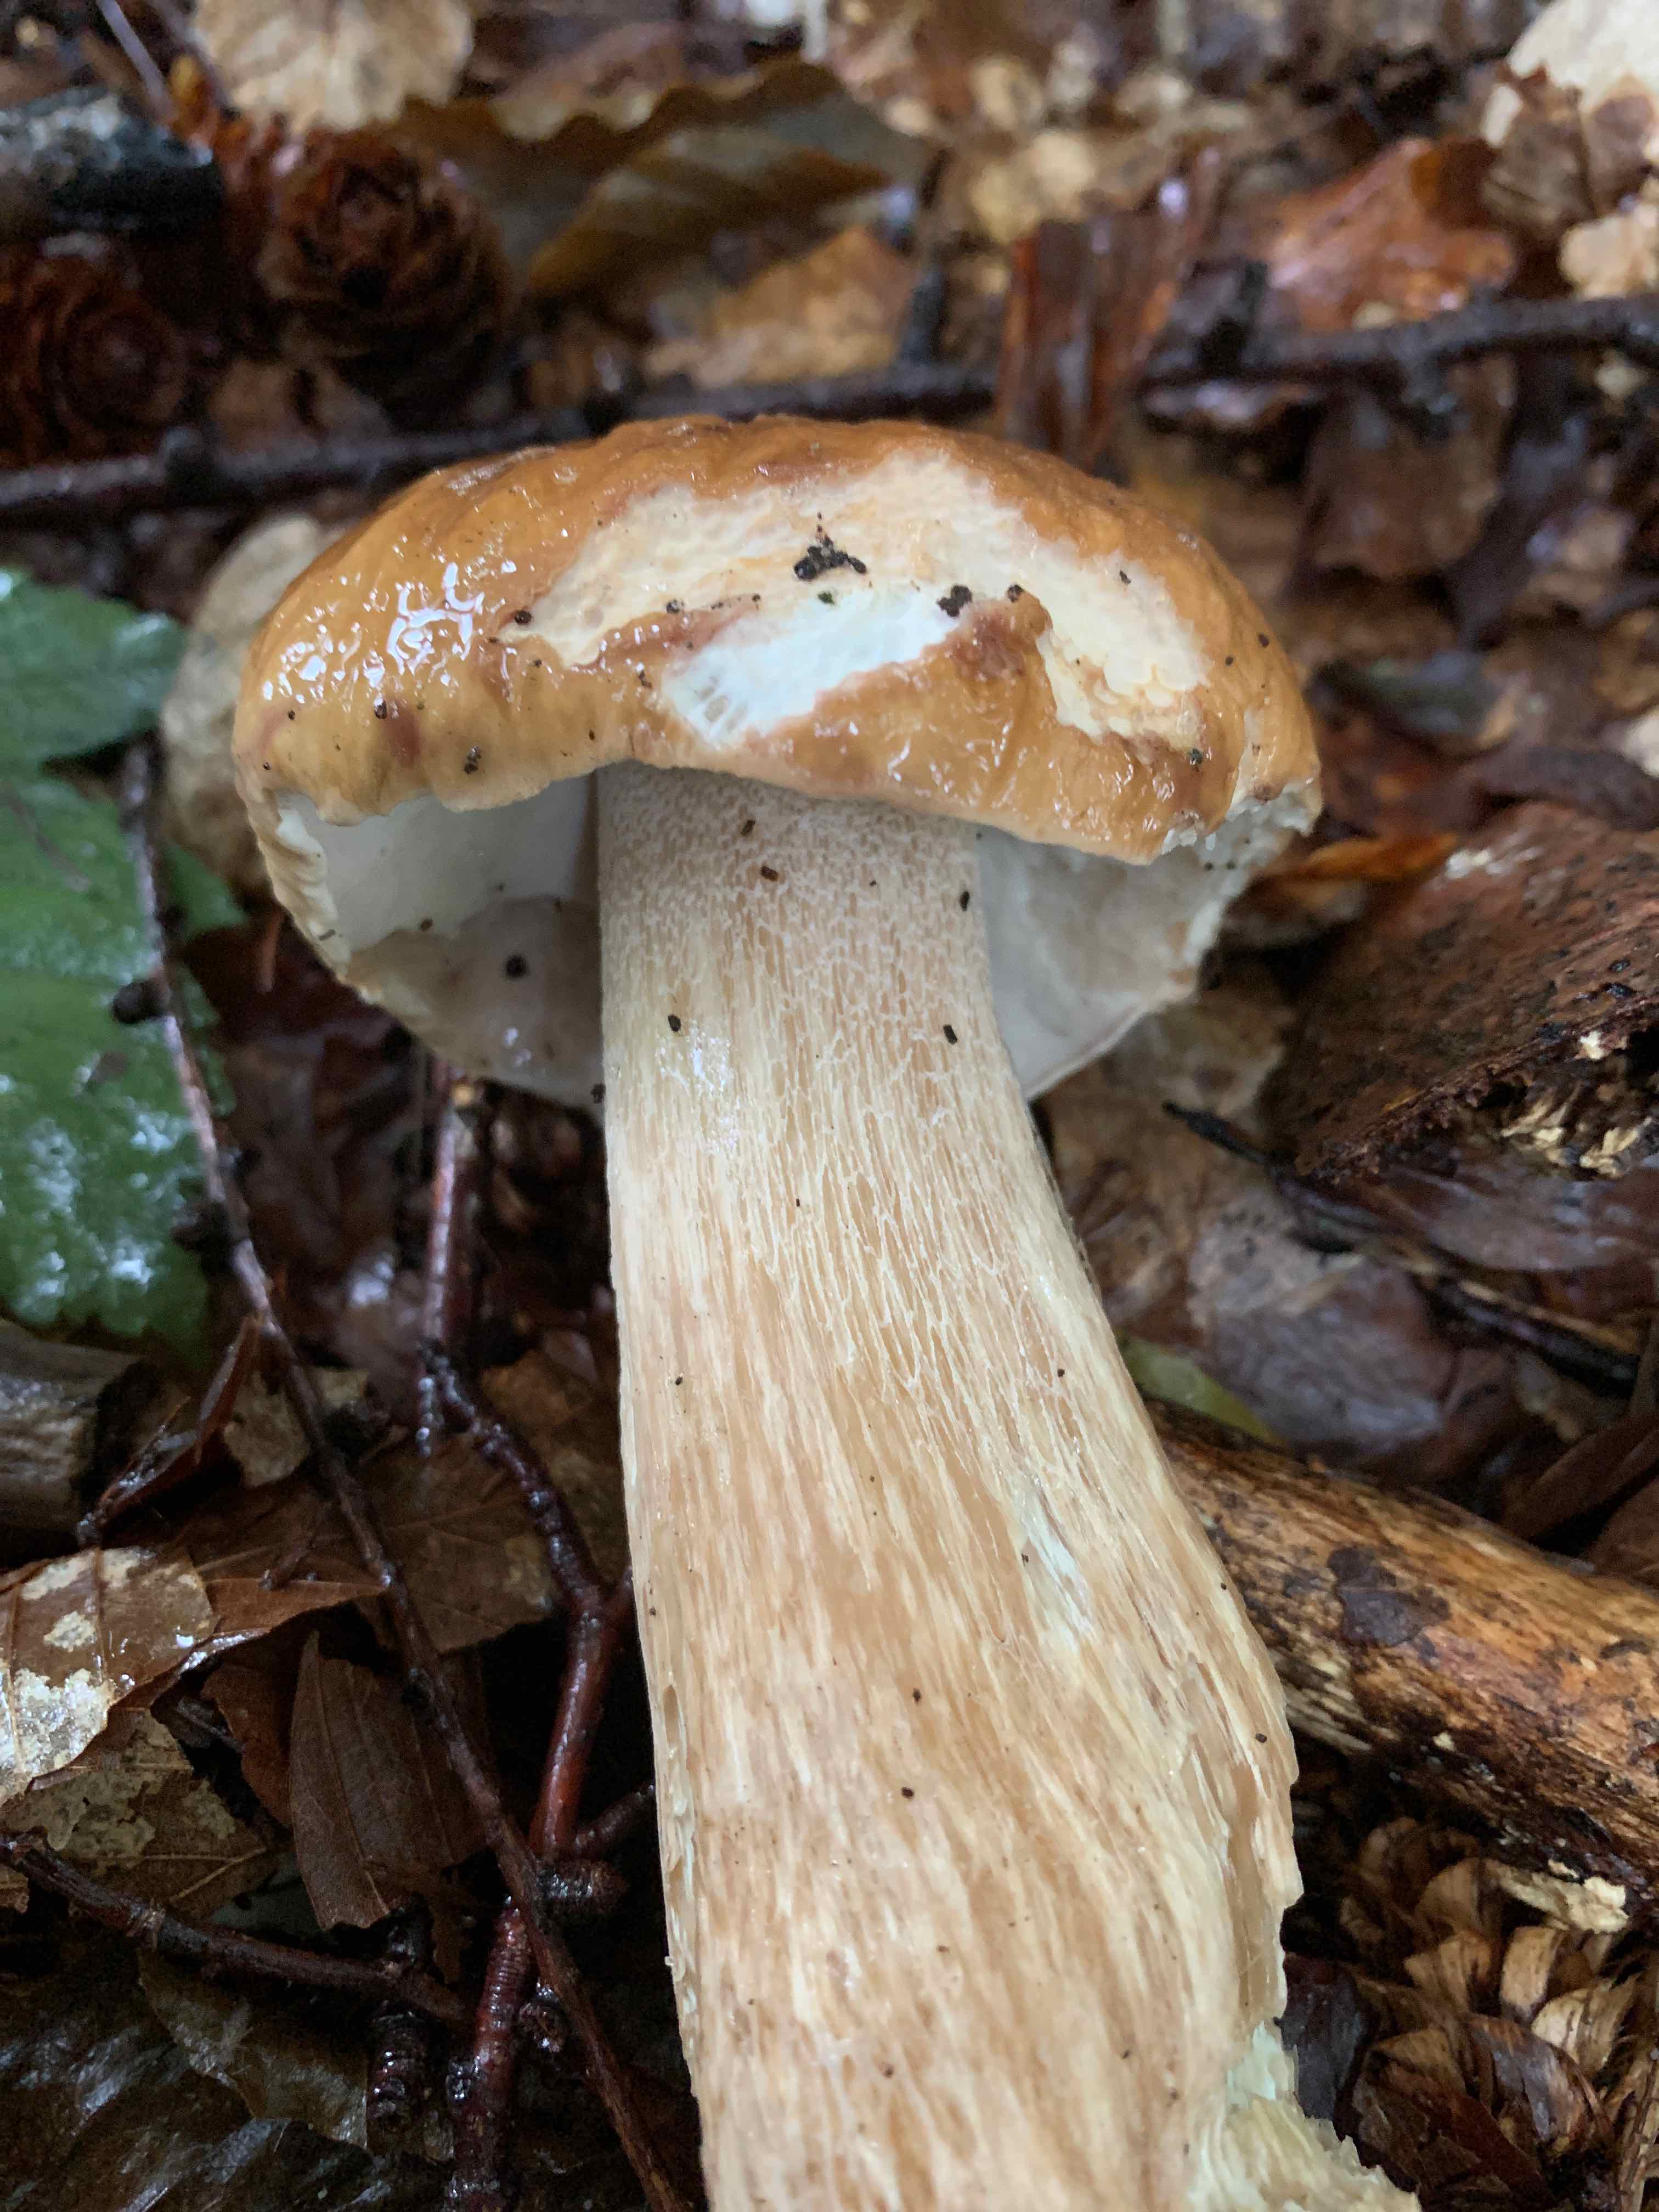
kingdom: Fungi
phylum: Basidiomycota
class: Agaricomycetes
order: Boletales
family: Boletaceae
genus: Boletus
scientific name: Boletus edulis
